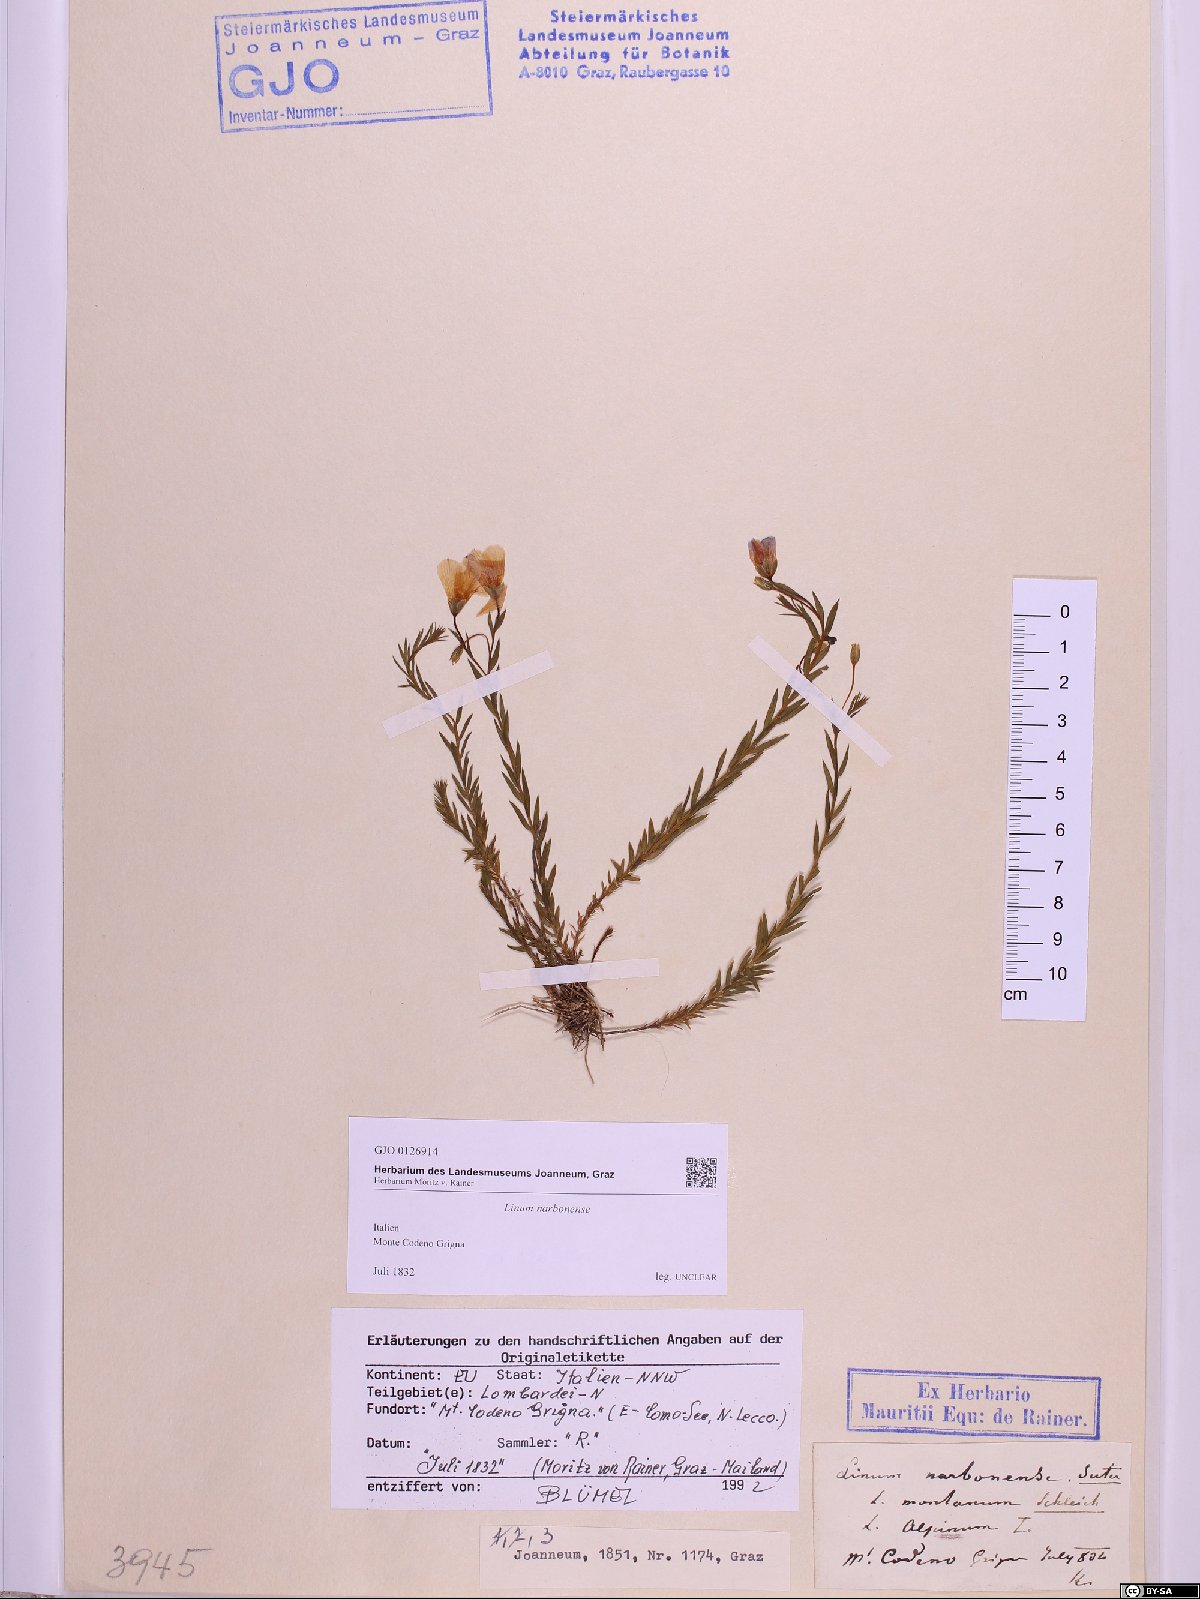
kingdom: Plantae
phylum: Tracheophyta
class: Magnoliopsida
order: Malpighiales
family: Linaceae
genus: Linum
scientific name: Linum narbonense
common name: Flax
